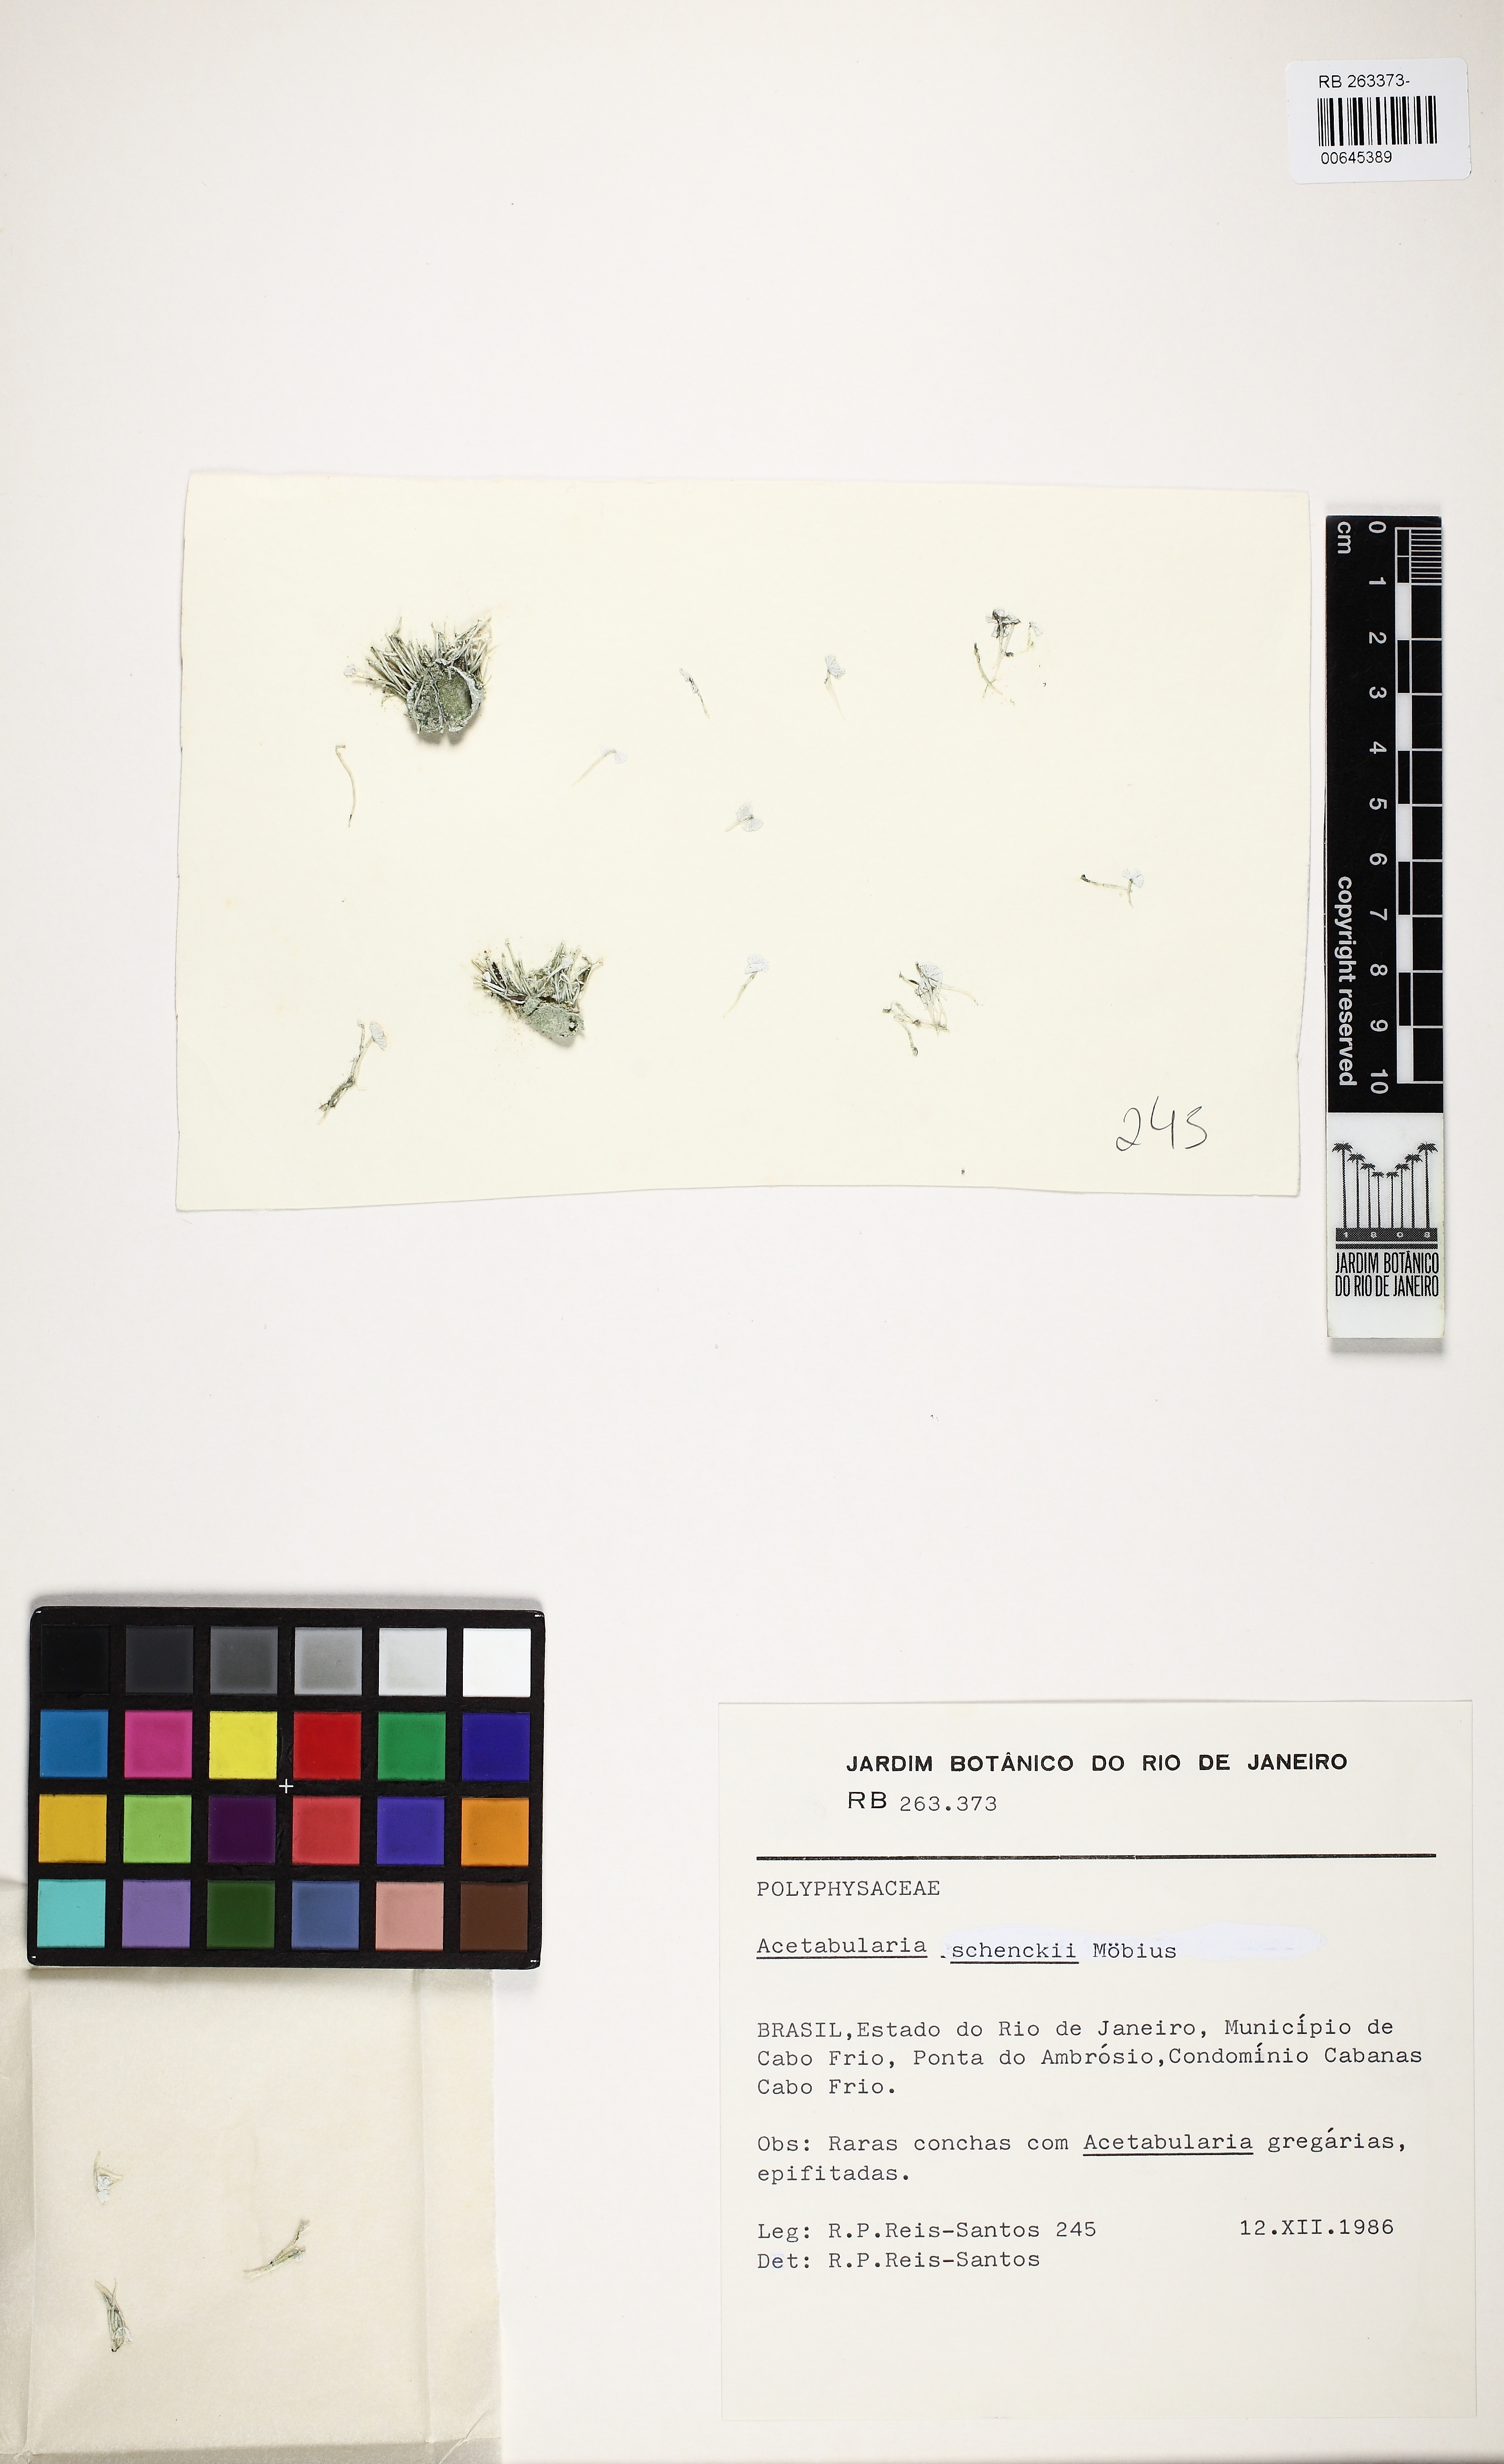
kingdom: Plantae
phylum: Chlorophyta
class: Ulvophyceae
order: Dasycladales
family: Polyphysaceae
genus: Acetabularia
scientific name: Acetabularia schenckii
